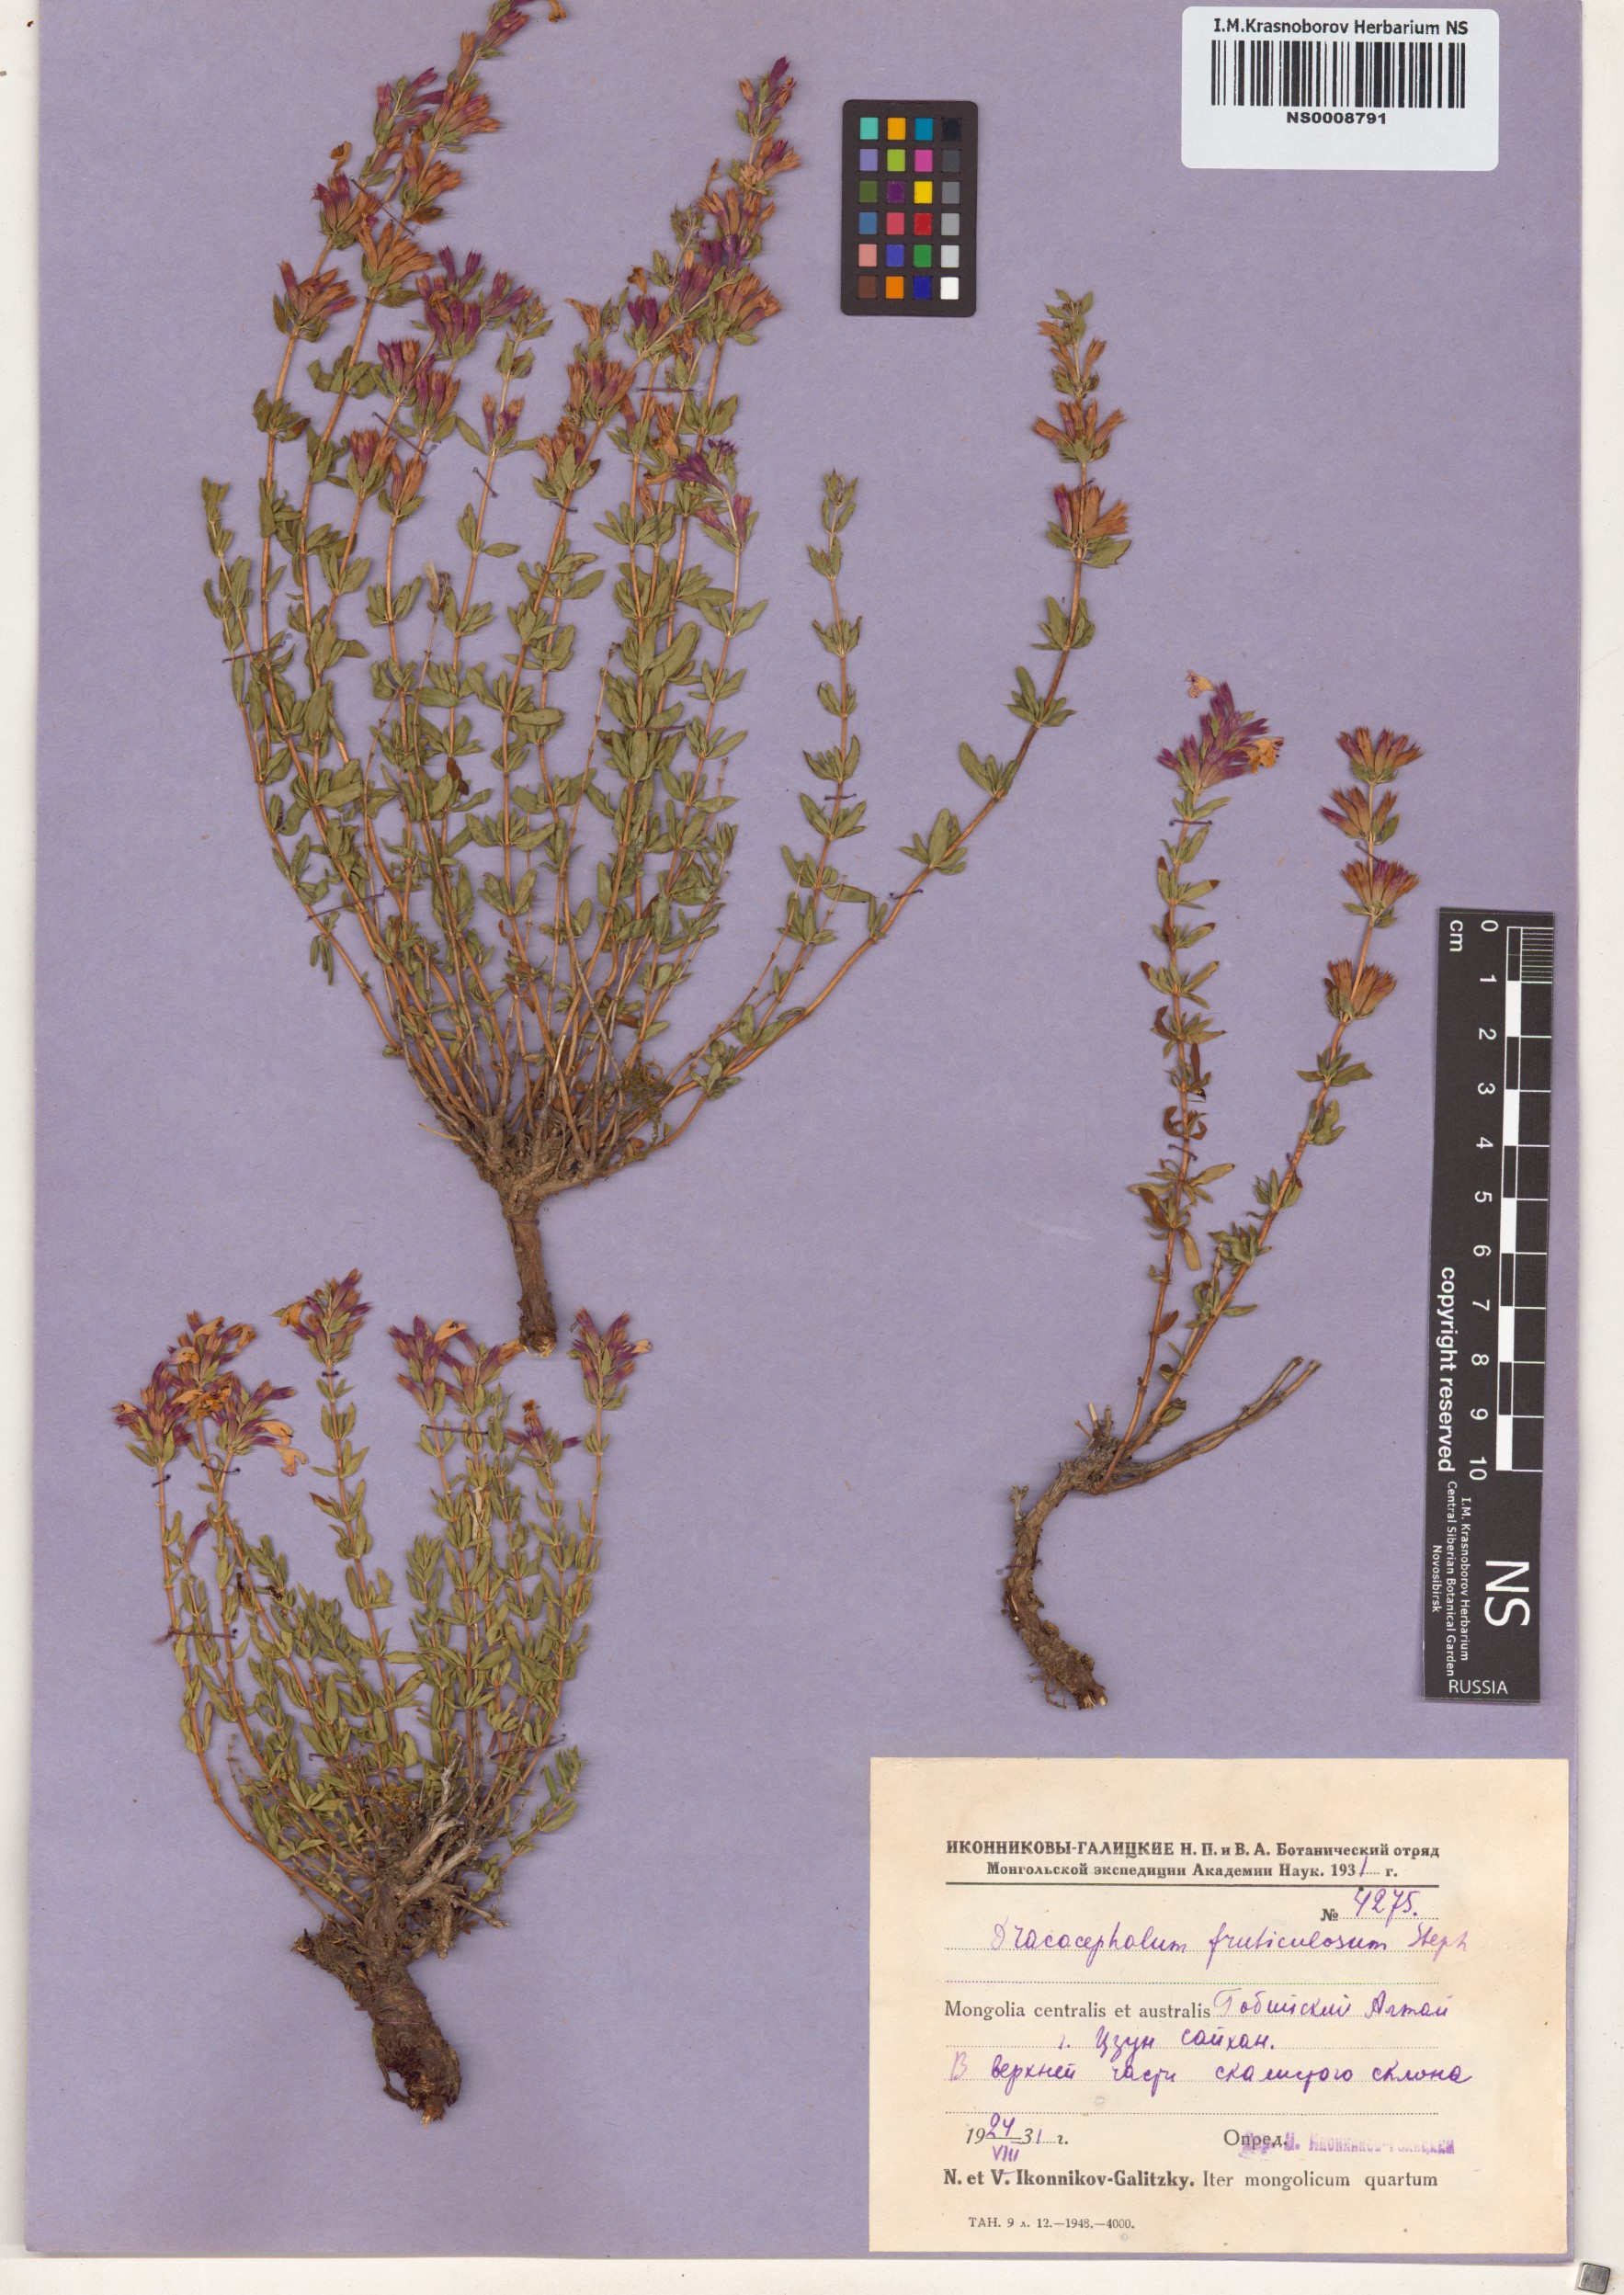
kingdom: Plantae
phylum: Tracheophyta
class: Magnoliopsida
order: Lamiales
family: Lamiaceae
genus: Dracocephalum
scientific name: Dracocephalum fruticulosum
